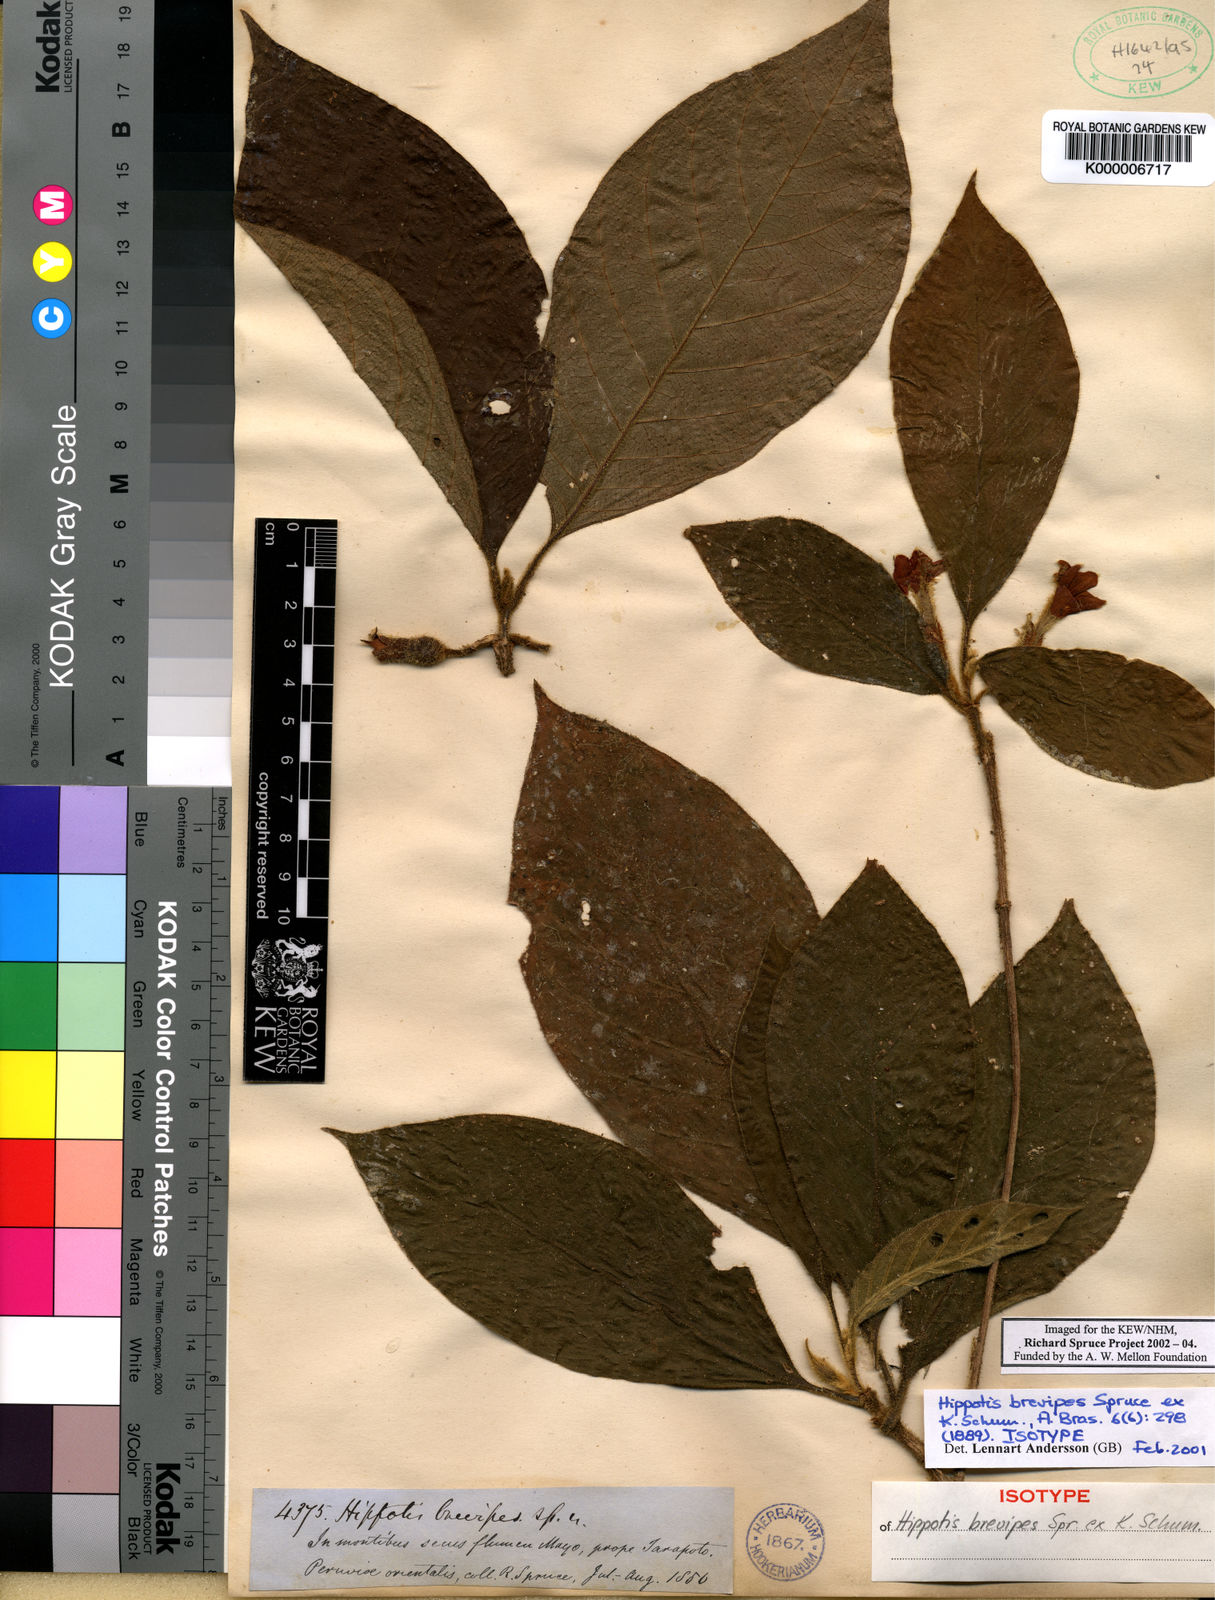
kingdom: Plantae
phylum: Tracheophyta
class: Magnoliopsida
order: Gentianales
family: Rubiaceae
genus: Hippotis
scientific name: Hippotis brevipes
